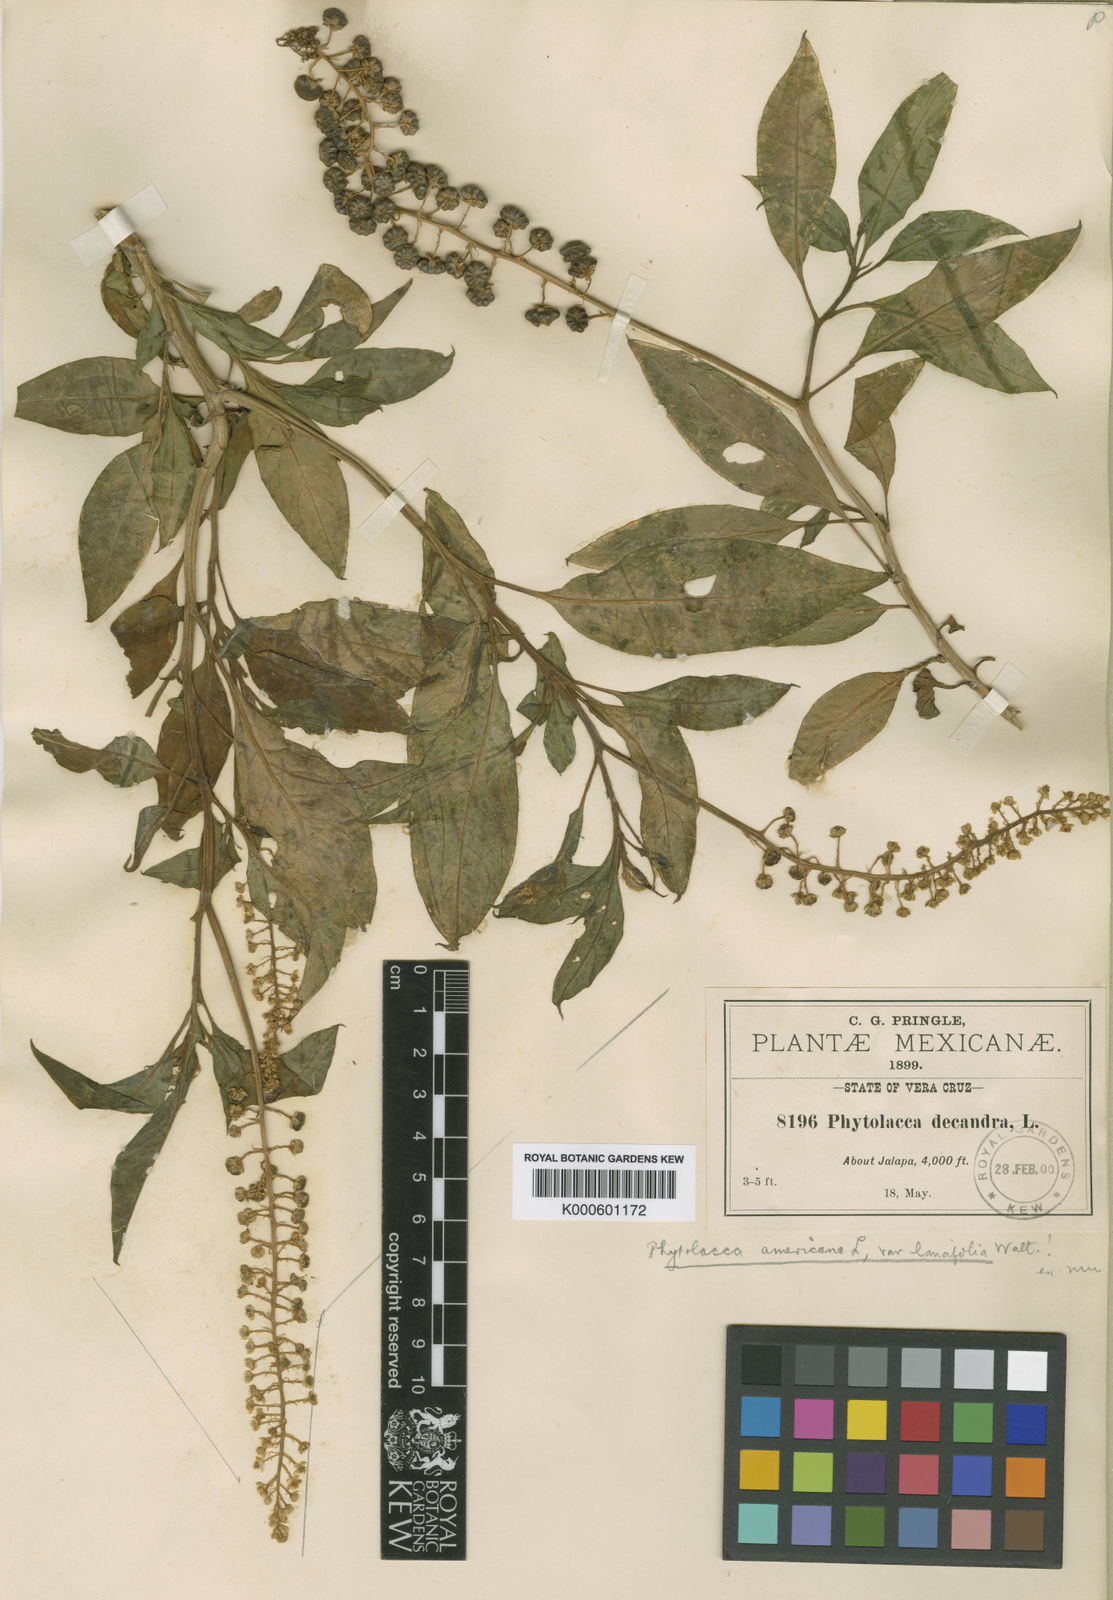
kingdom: Plantae
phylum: Tracheophyta
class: Magnoliopsida
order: Caryophyllales
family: Phytolaccaceae
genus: Phytolacca
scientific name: Phytolacca americana
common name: American pokeweed
